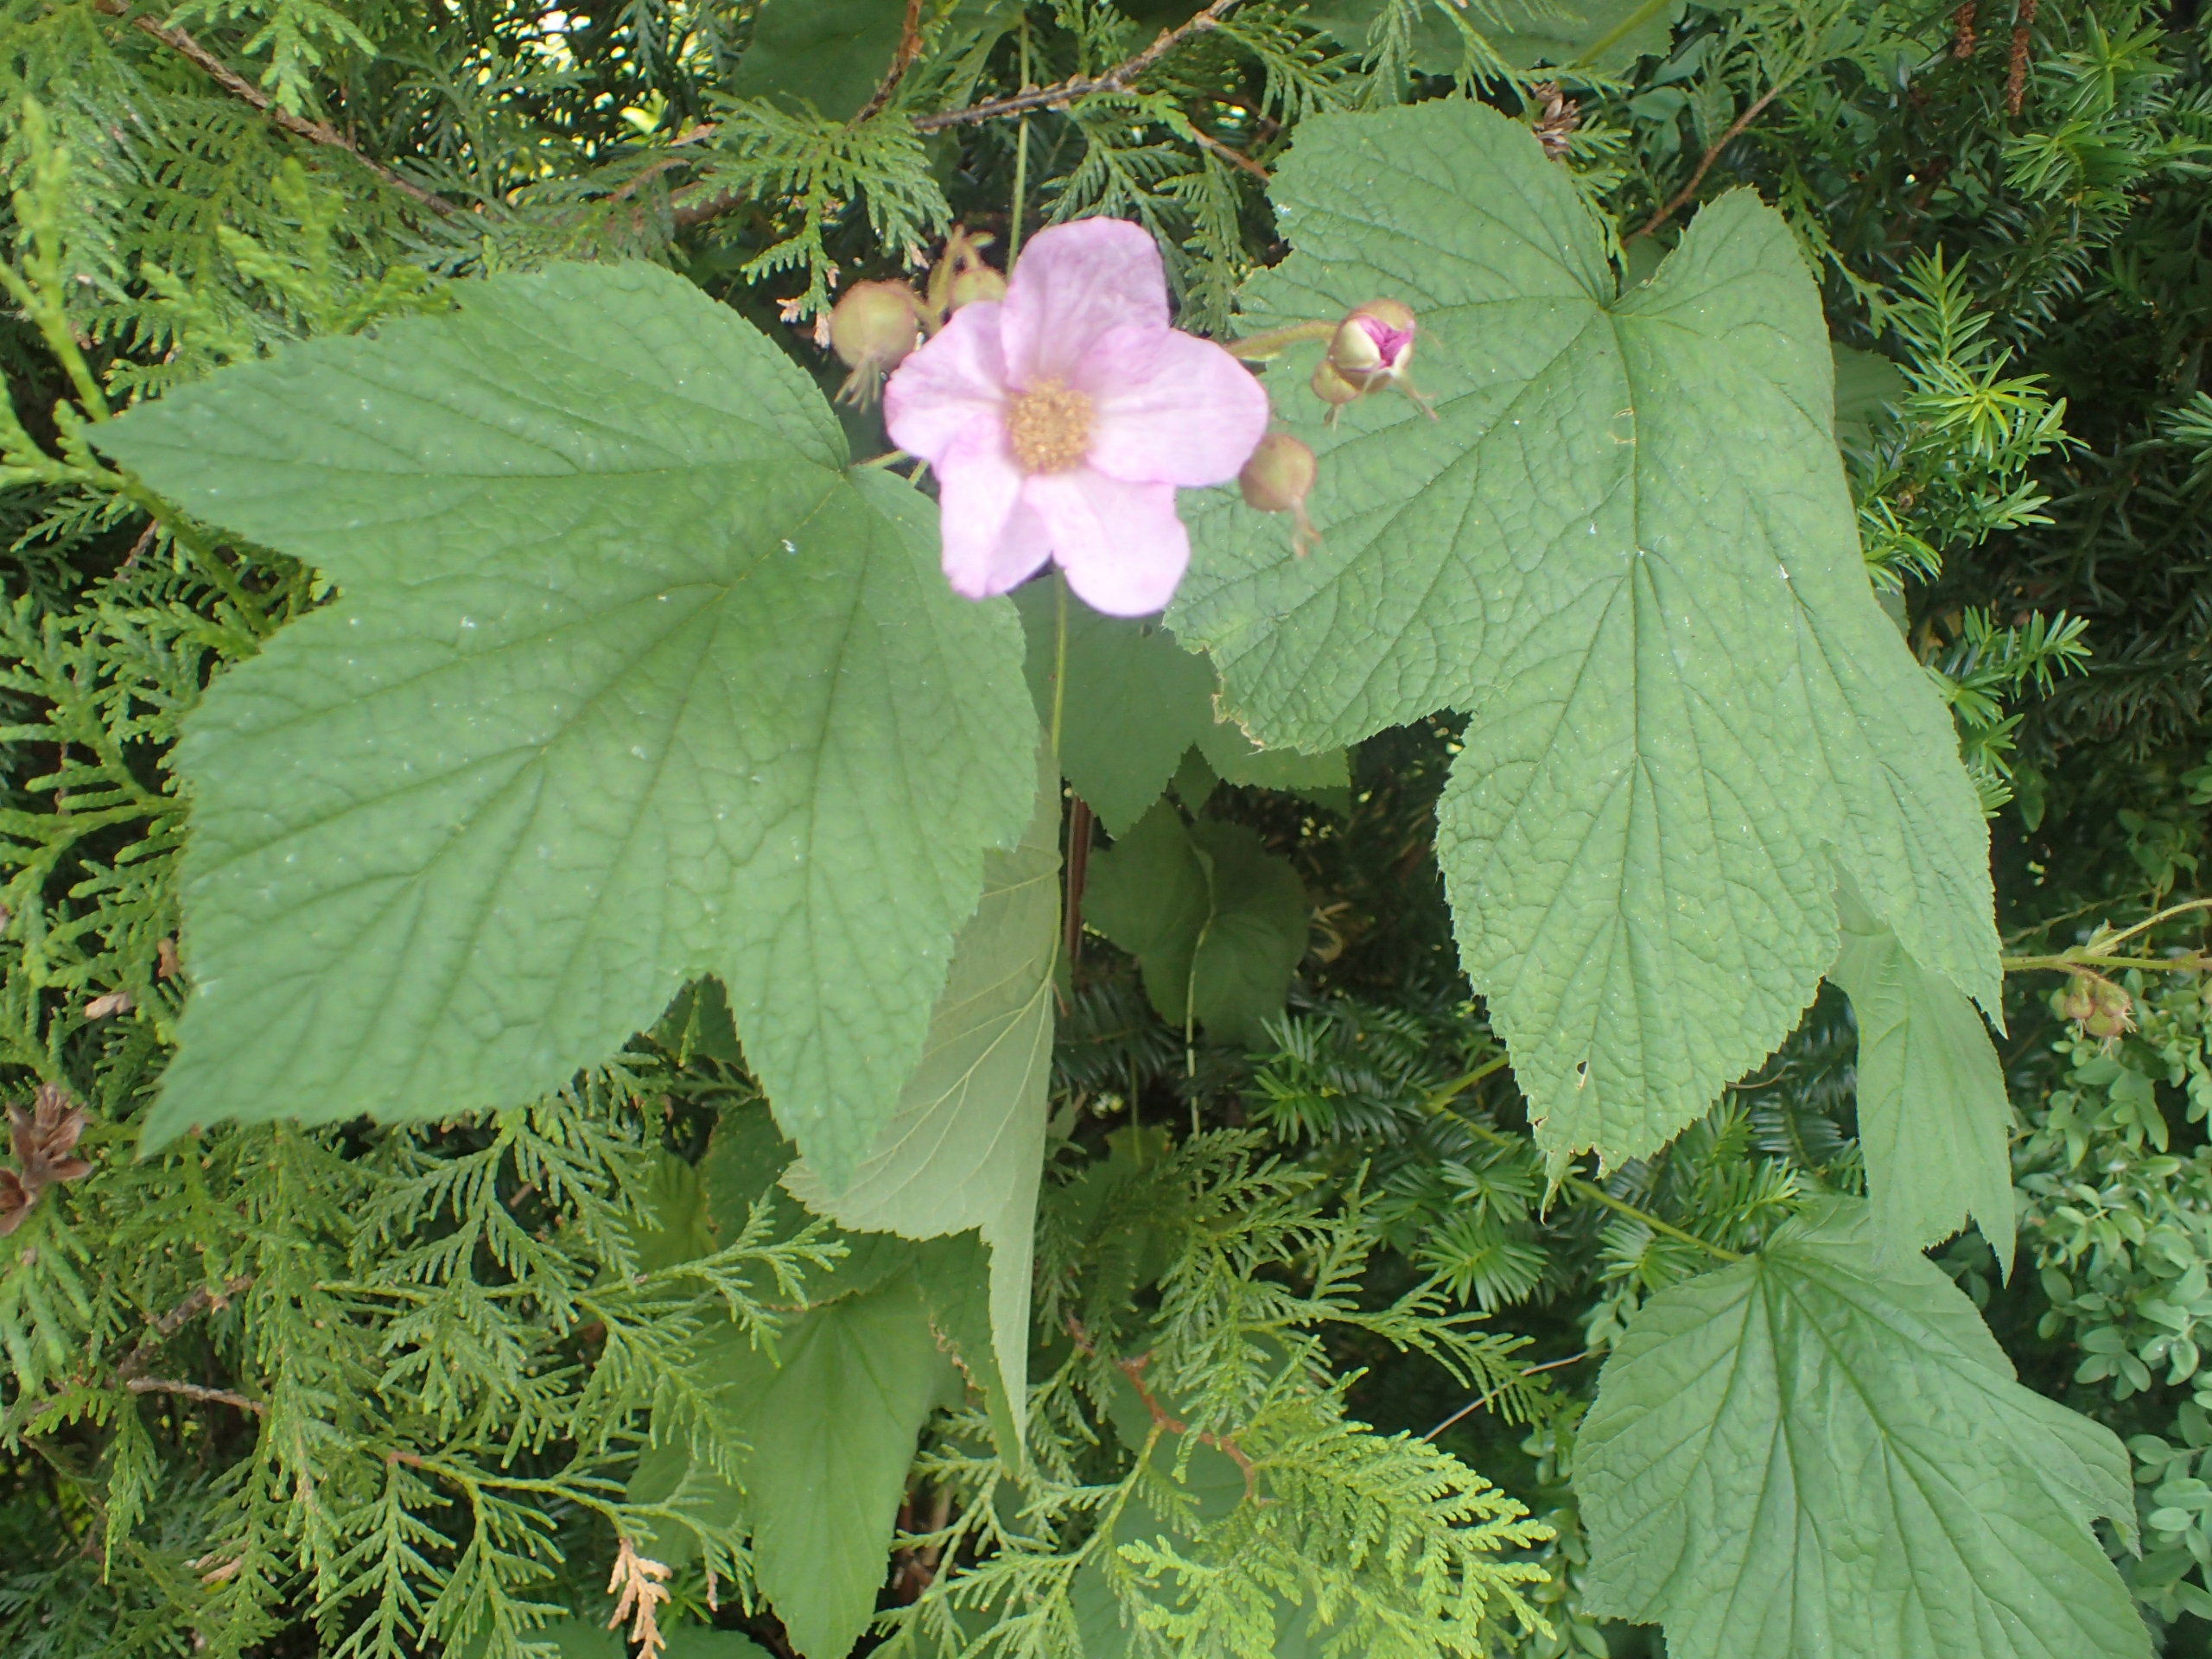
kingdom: Plantae
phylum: Tracheophyta
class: Magnoliopsida
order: Rosales
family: Rosaceae
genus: Rubus
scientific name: Rubus odoratus
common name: Rosen-brombær
